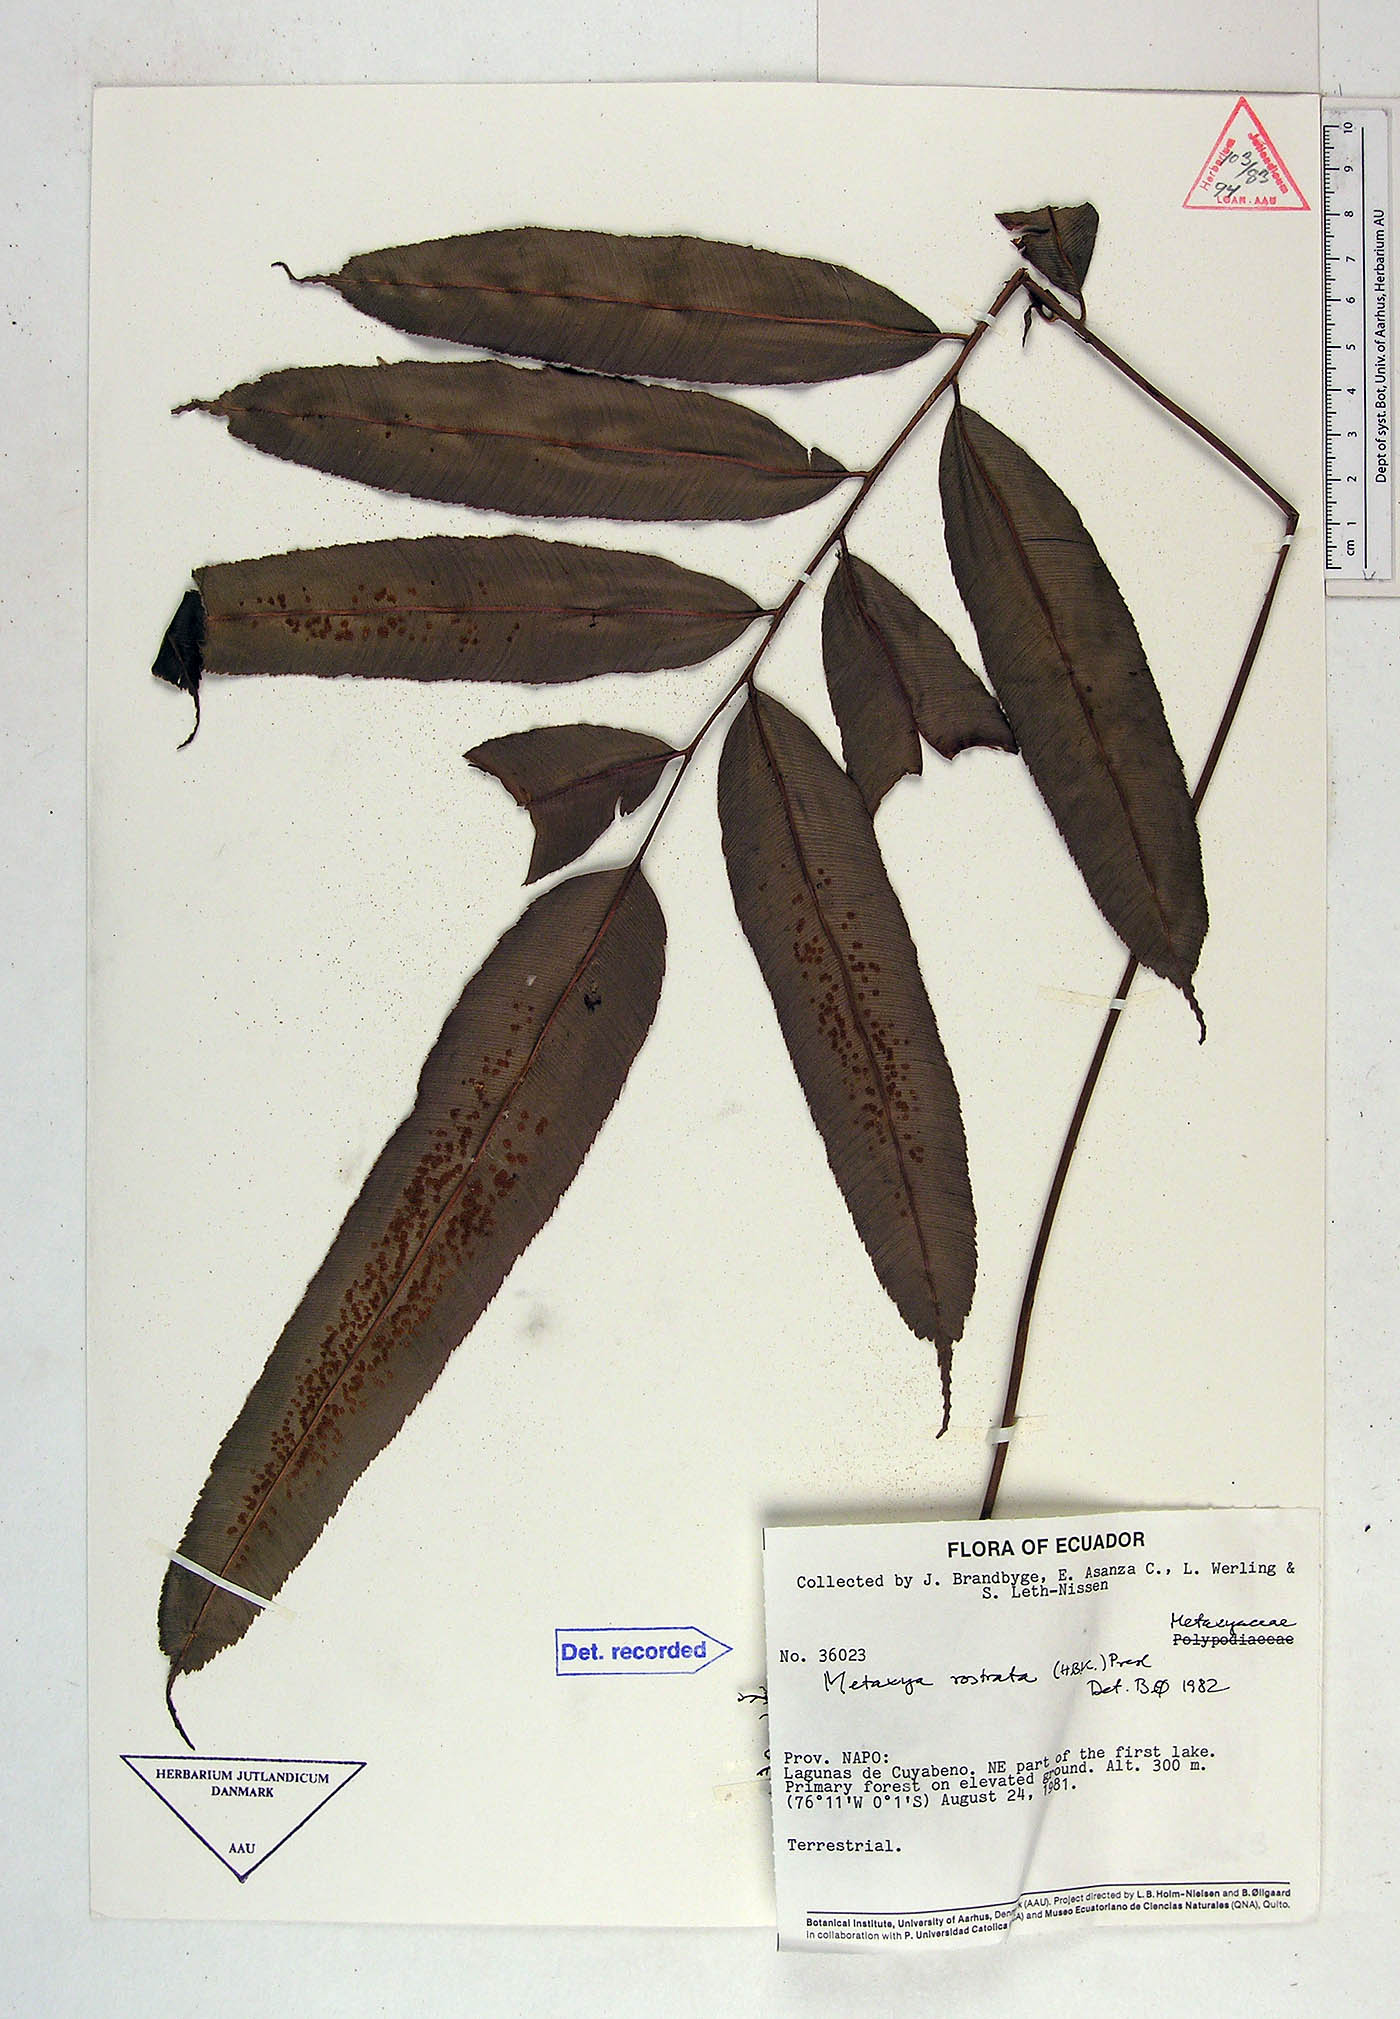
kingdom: Plantae
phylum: Tracheophyta
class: Polypodiopsida
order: Cyatheales
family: Metaxyaceae
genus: Metaxya
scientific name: Metaxya parkeri
